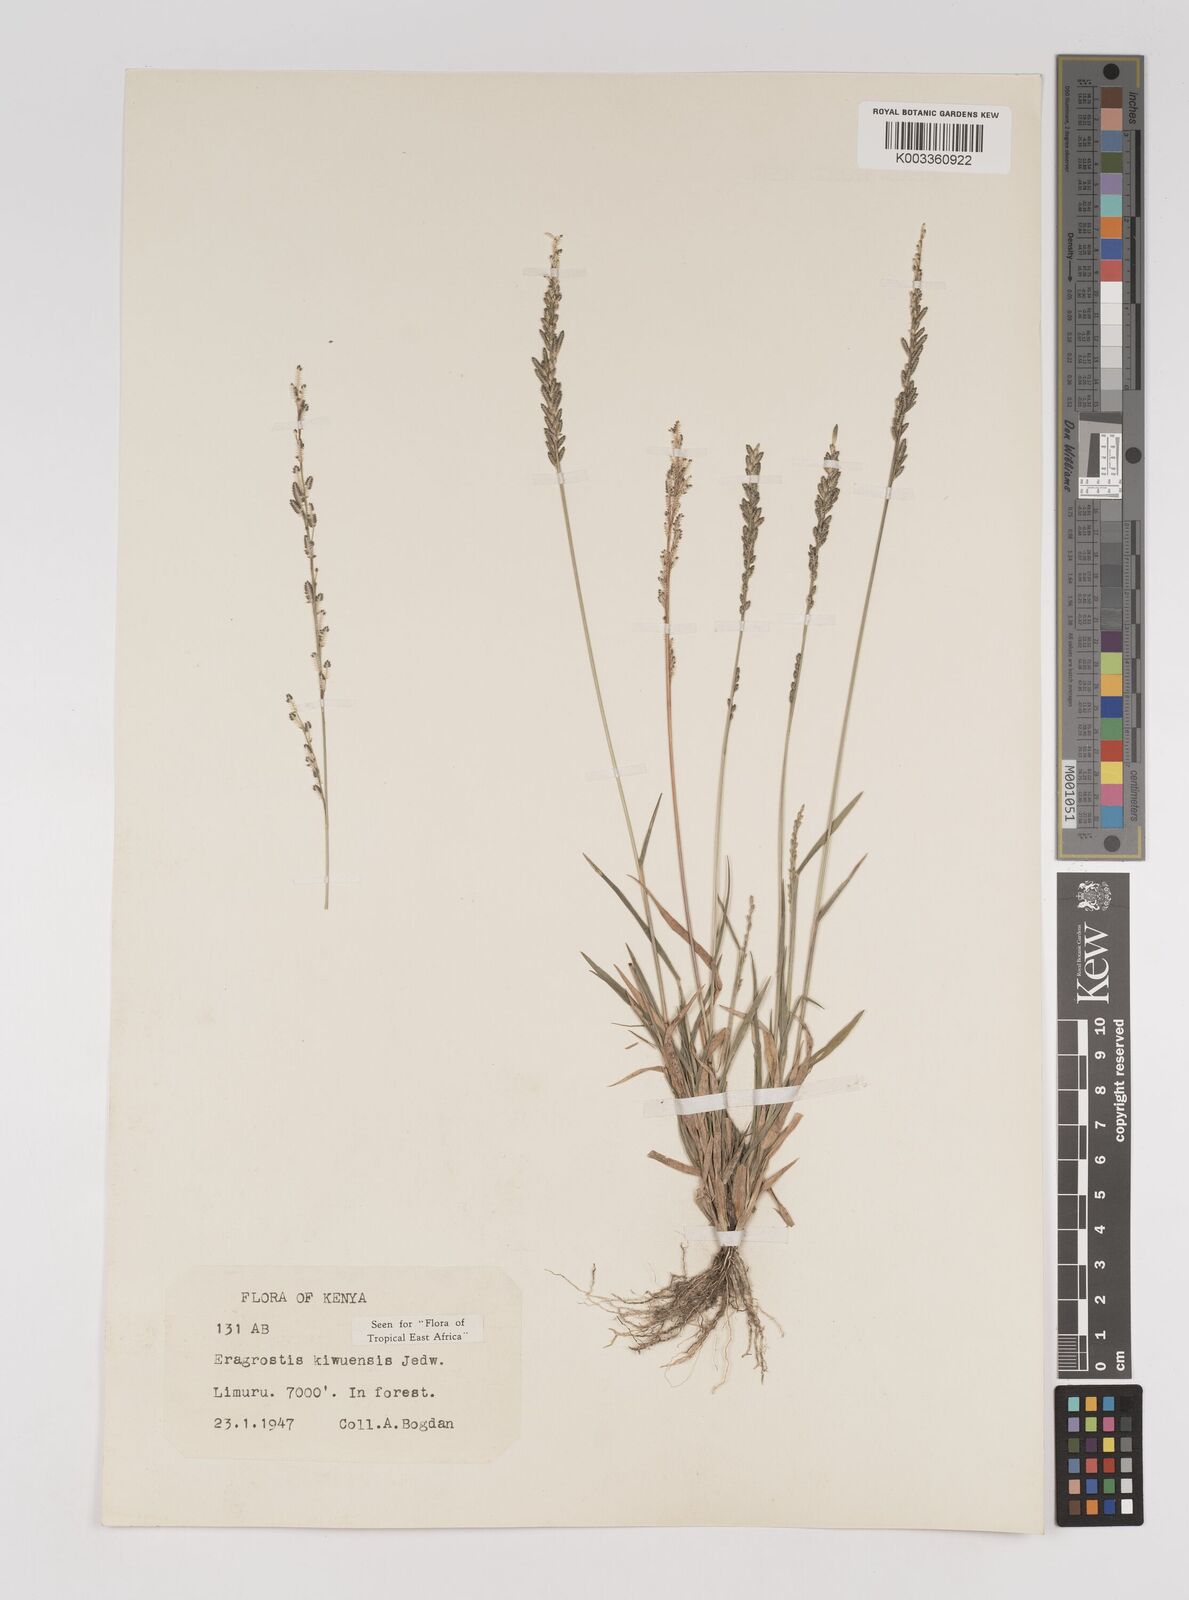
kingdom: Plantae
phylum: Tracheophyta
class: Liliopsida
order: Poales
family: Poaceae
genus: Eragrostis
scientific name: Eragrostis schweinfurthii
